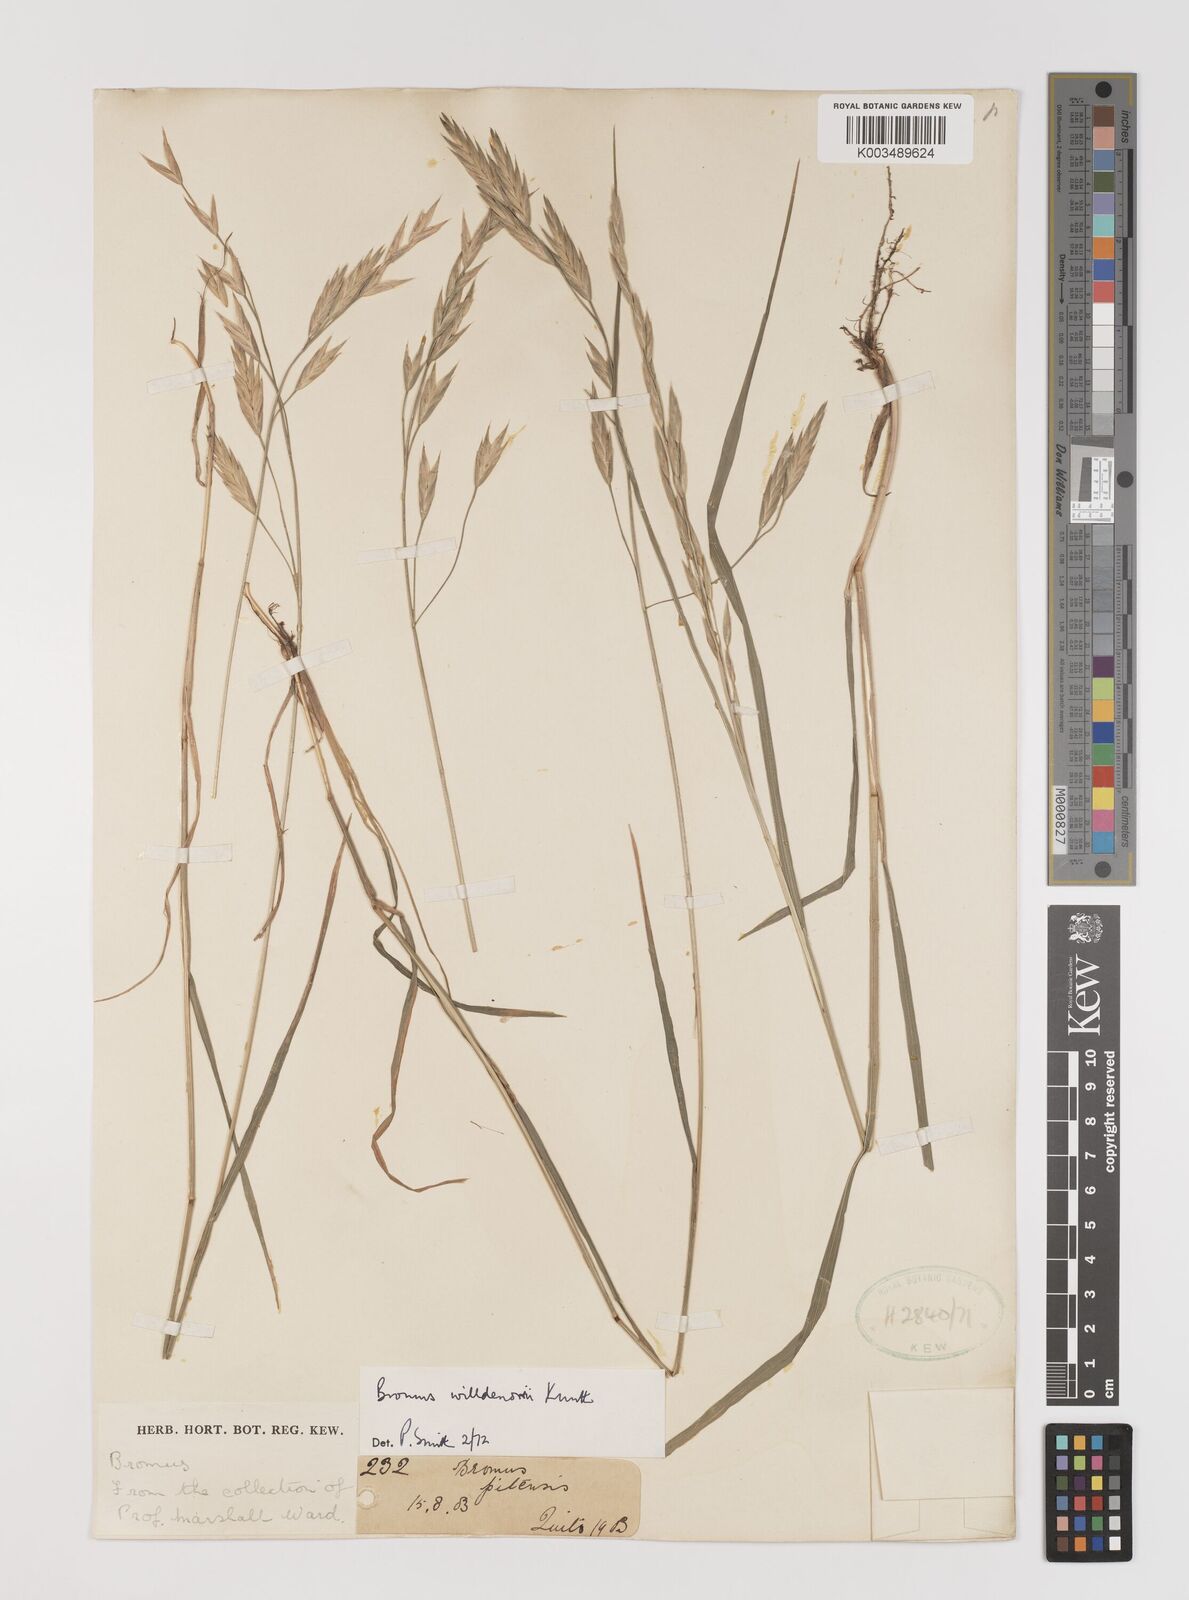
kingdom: Plantae
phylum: Tracheophyta
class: Liliopsida
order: Poales
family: Poaceae
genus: Bromus
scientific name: Bromus catharticus
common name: Rescuegrass
